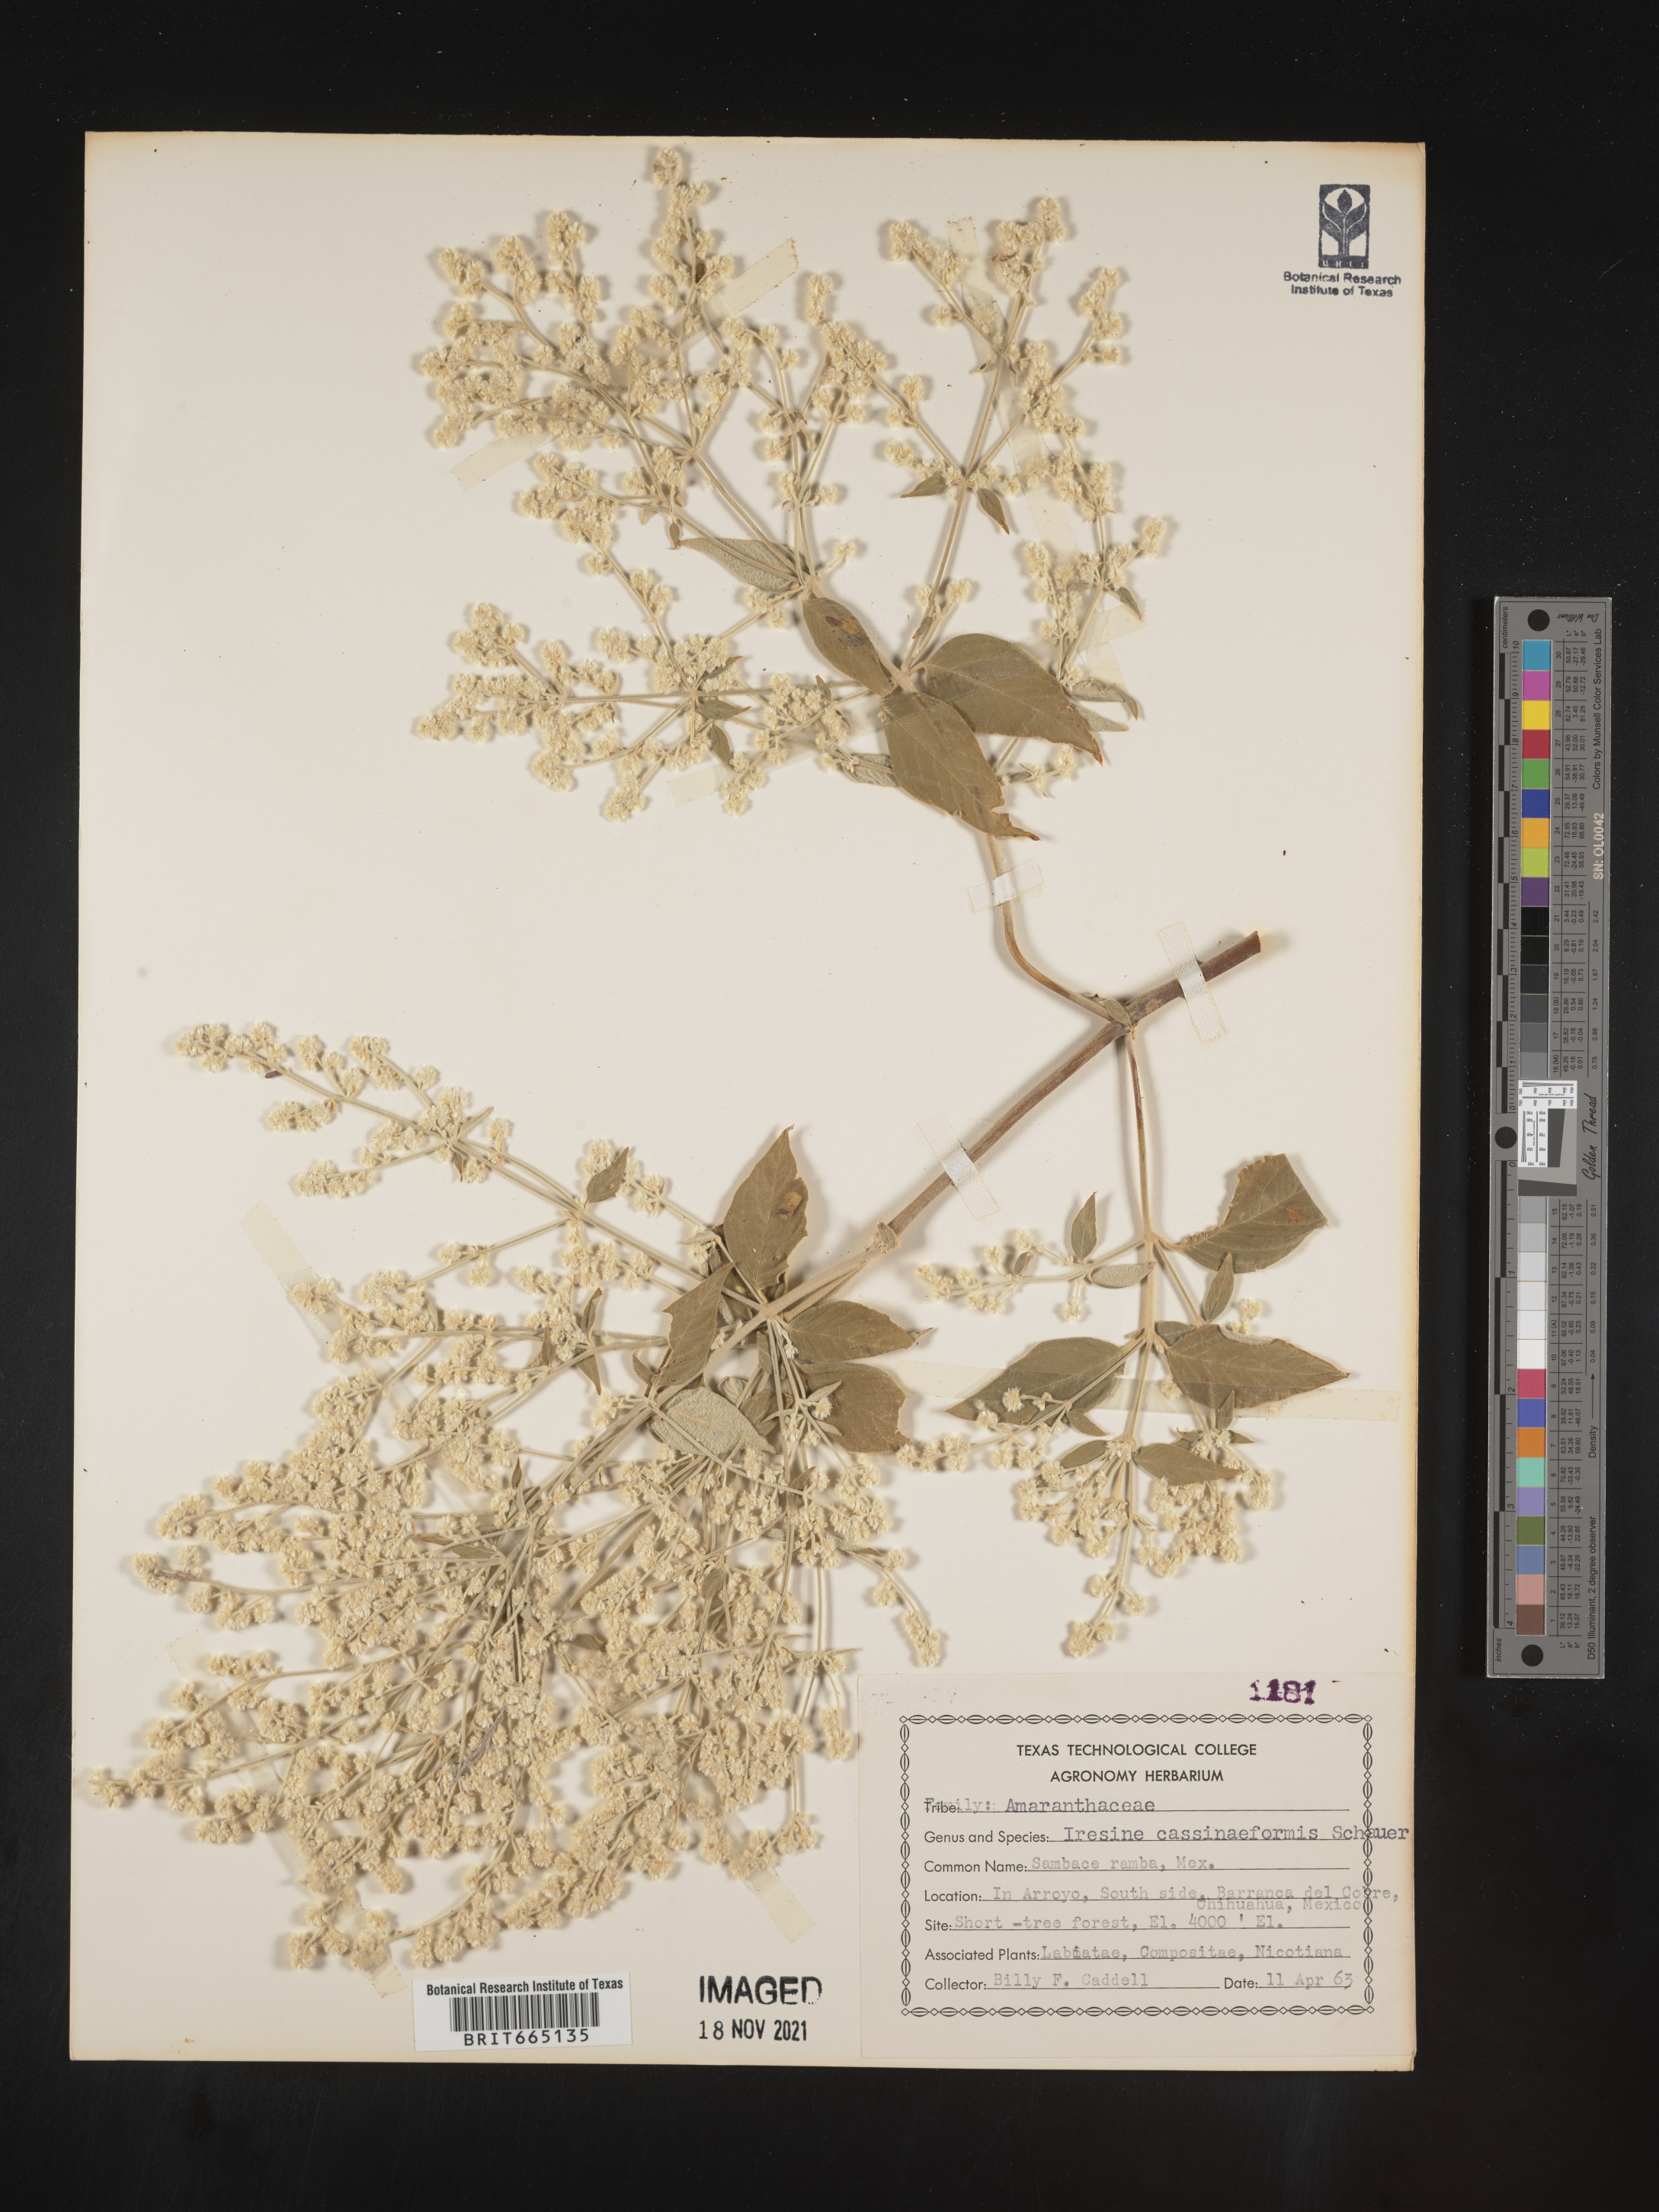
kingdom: Plantae
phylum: Tracheophyta
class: Magnoliopsida
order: Caryophyllales
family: Amaranthaceae
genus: Iresine
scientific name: Iresine
